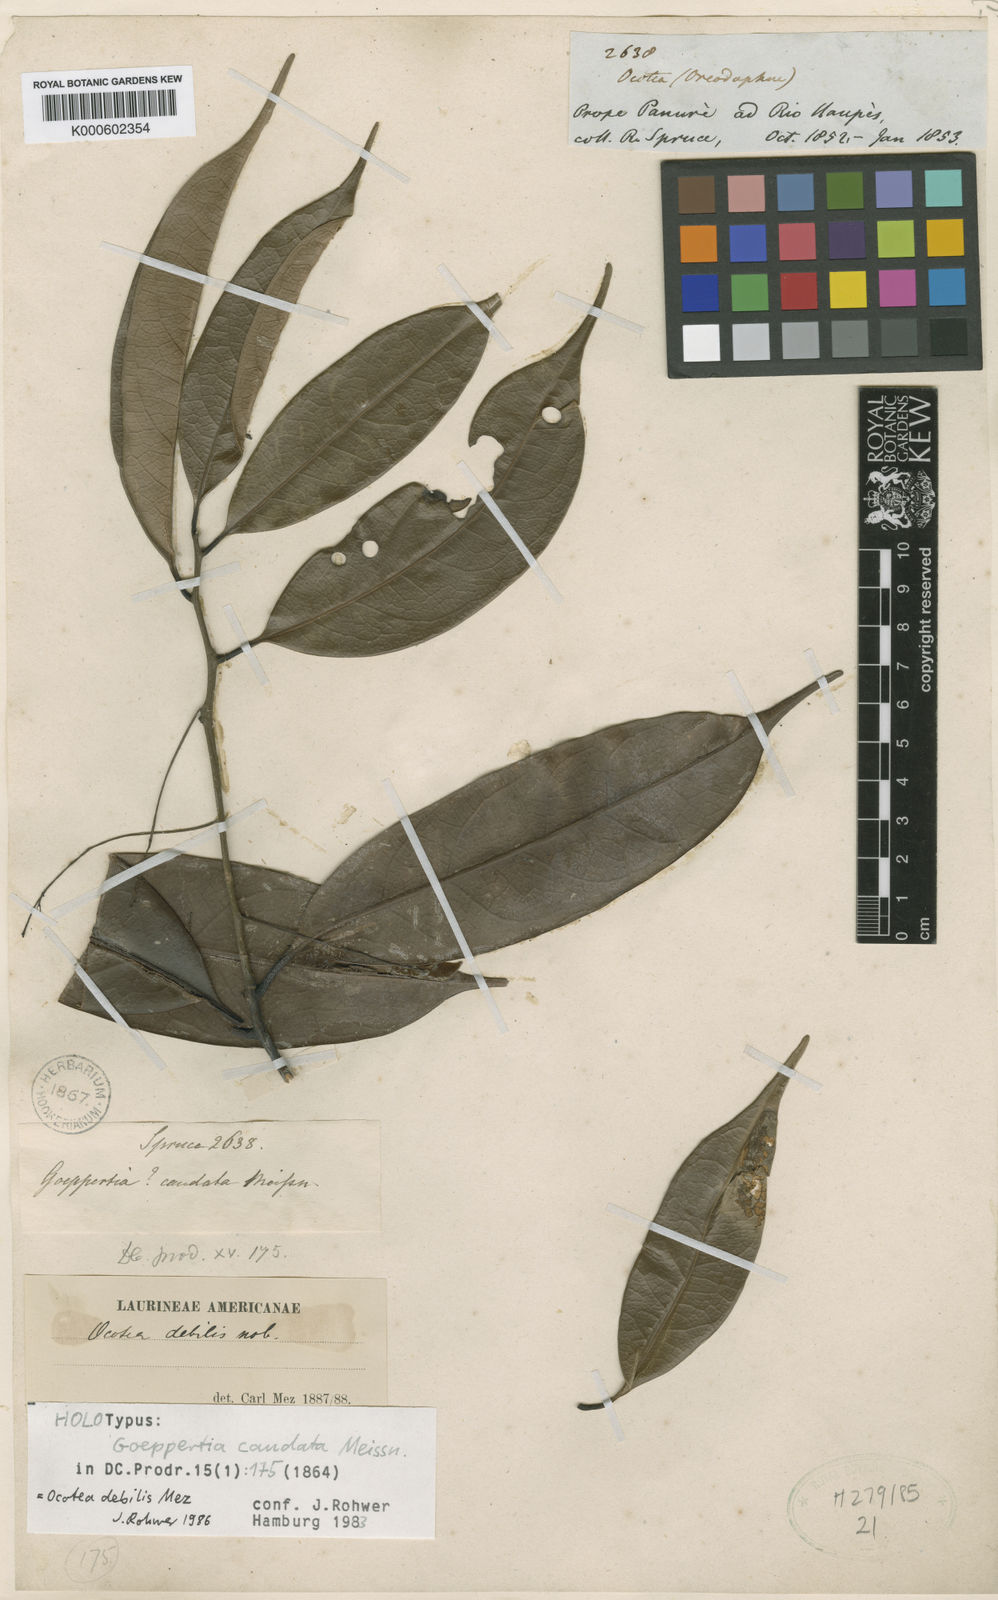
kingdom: Plantae
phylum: Tracheophyta
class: Magnoliopsida
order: Laurales
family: Lauraceae
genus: Ocotea
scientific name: Ocotea debilis
